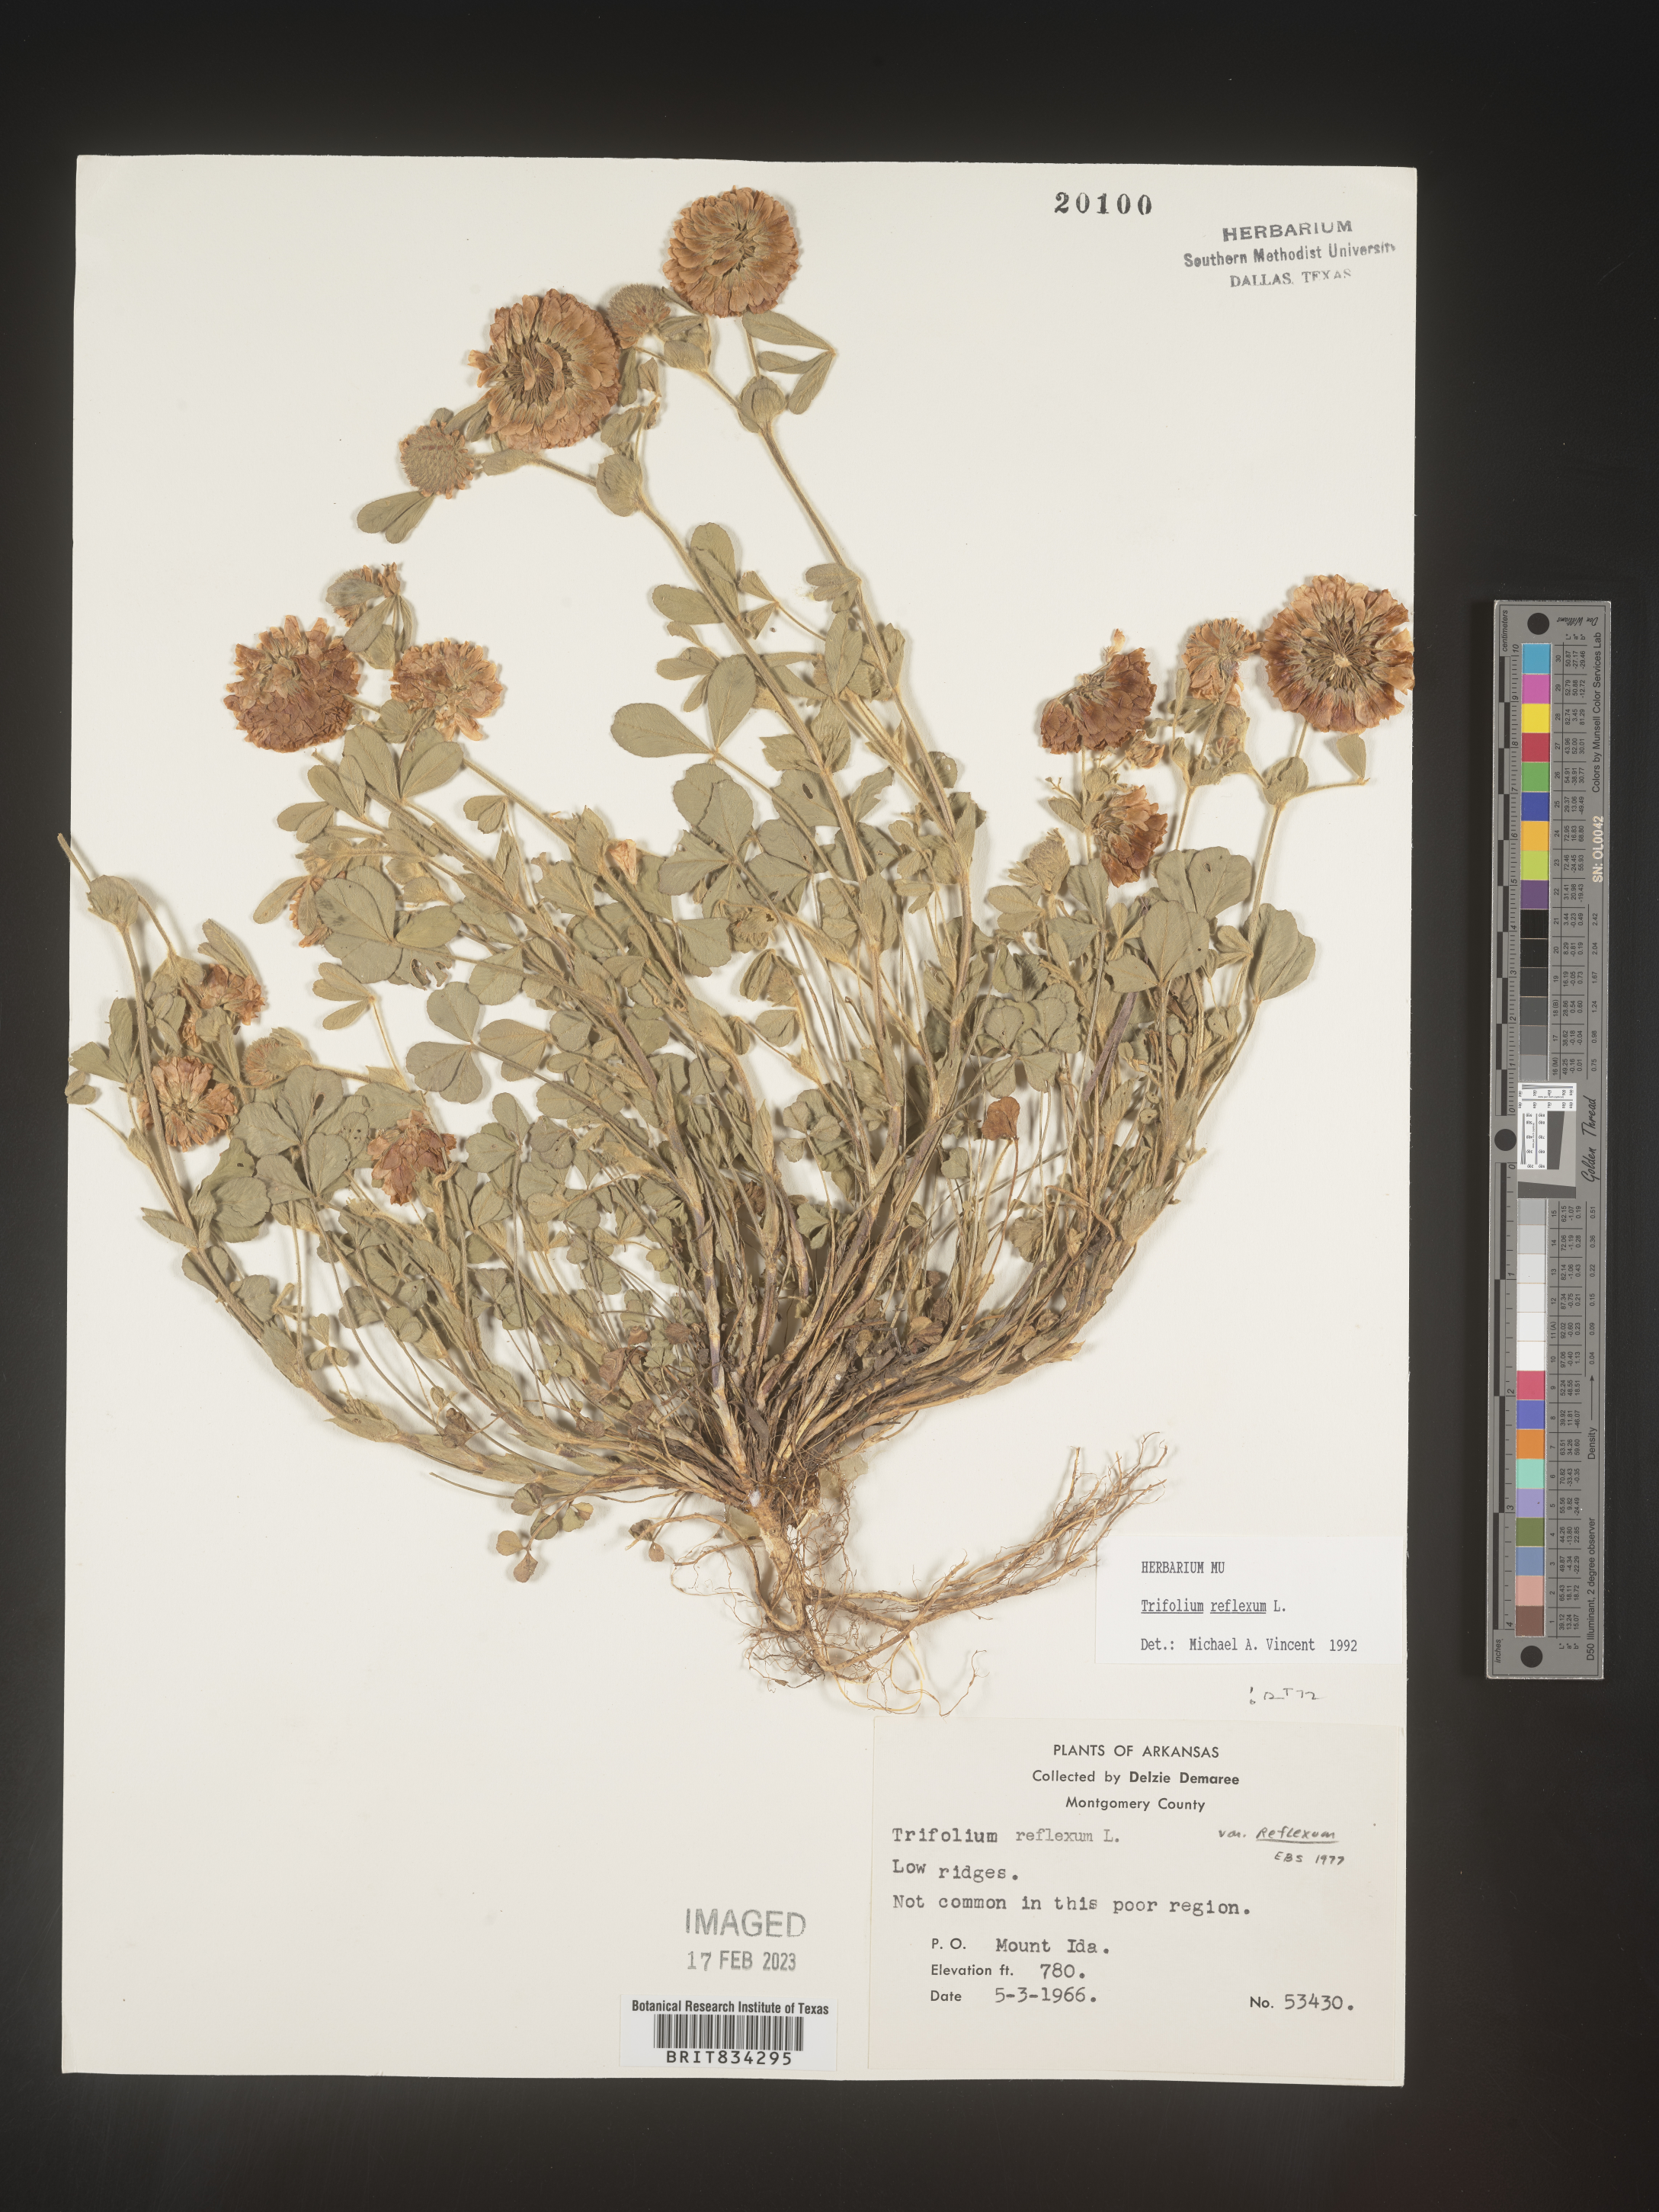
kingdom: Plantae
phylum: Tracheophyta
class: Magnoliopsida
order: Fabales
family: Fabaceae
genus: Trifolium
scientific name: Trifolium reflexum
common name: Buffalo clover
